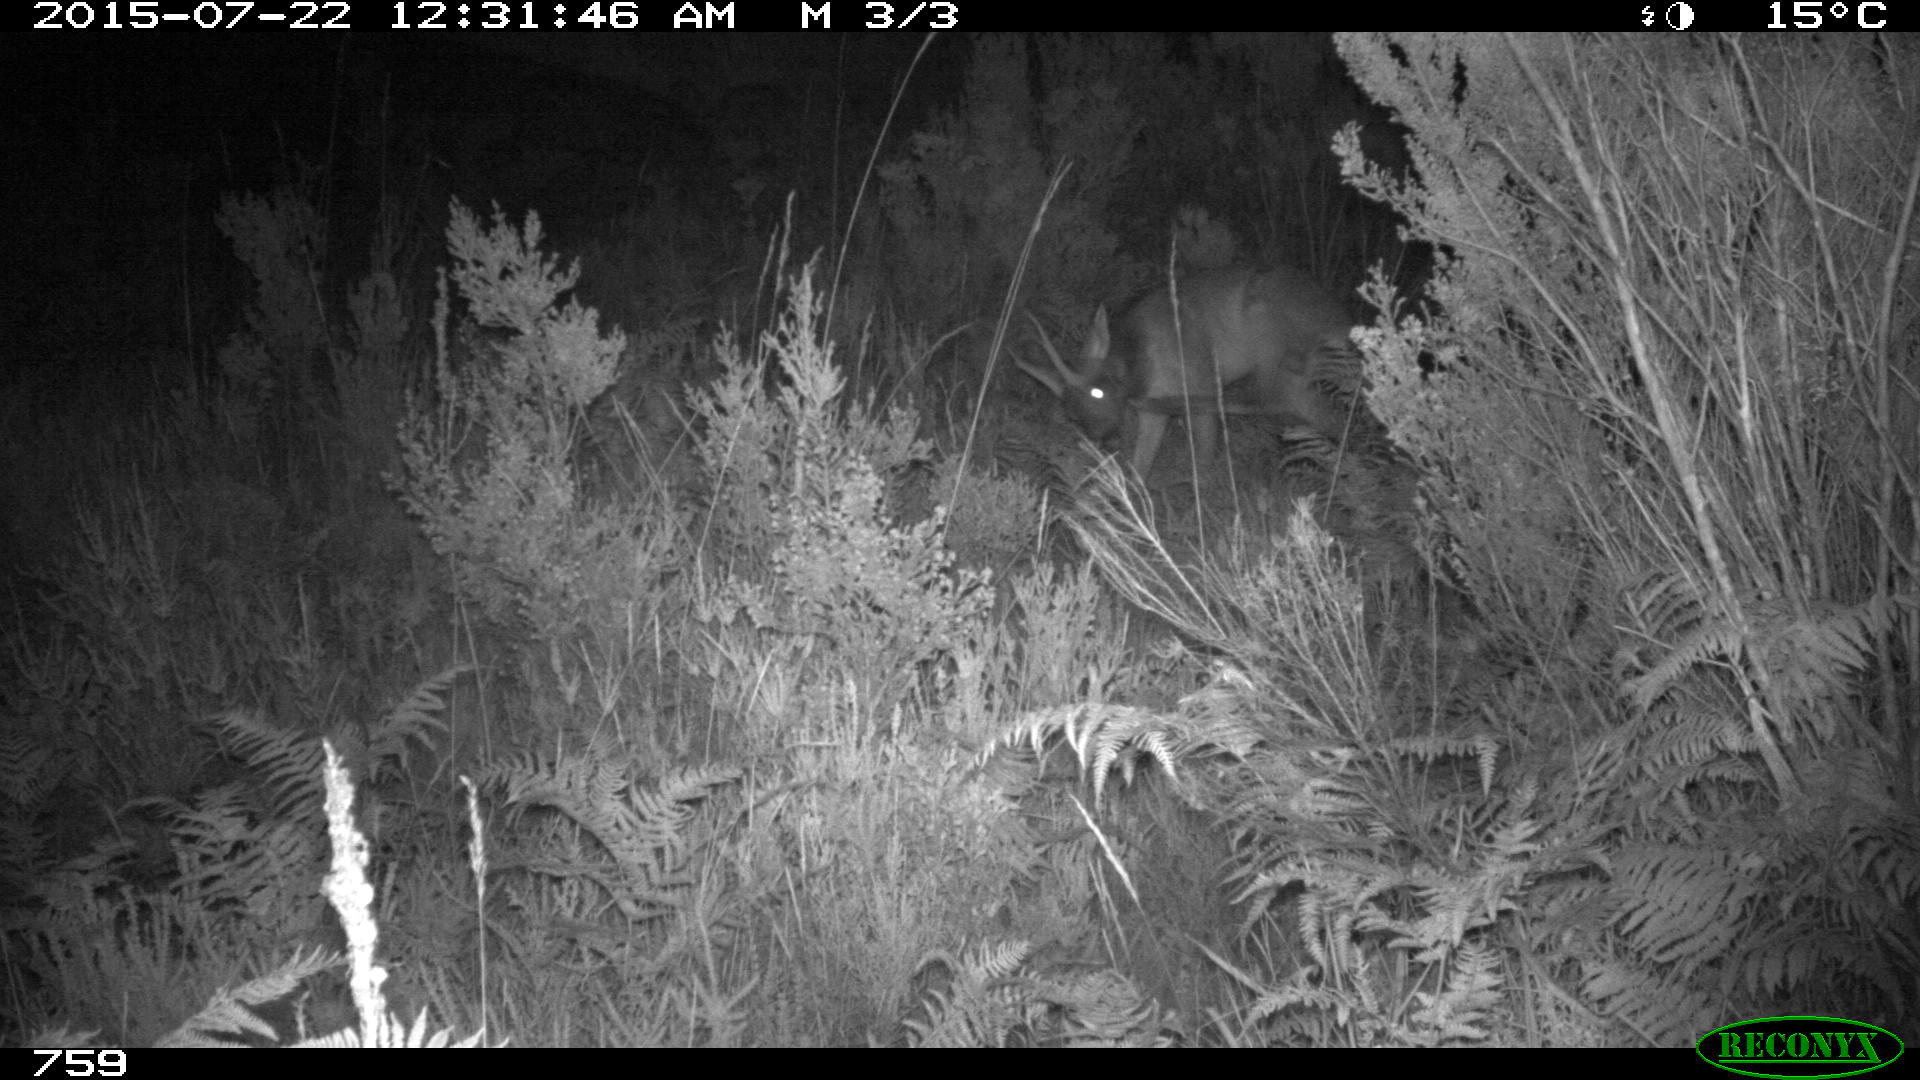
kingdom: Animalia
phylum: Chordata
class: Mammalia
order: Artiodactyla
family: Cervidae
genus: Capreolus
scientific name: Capreolus capreolus
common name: Western roe deer
